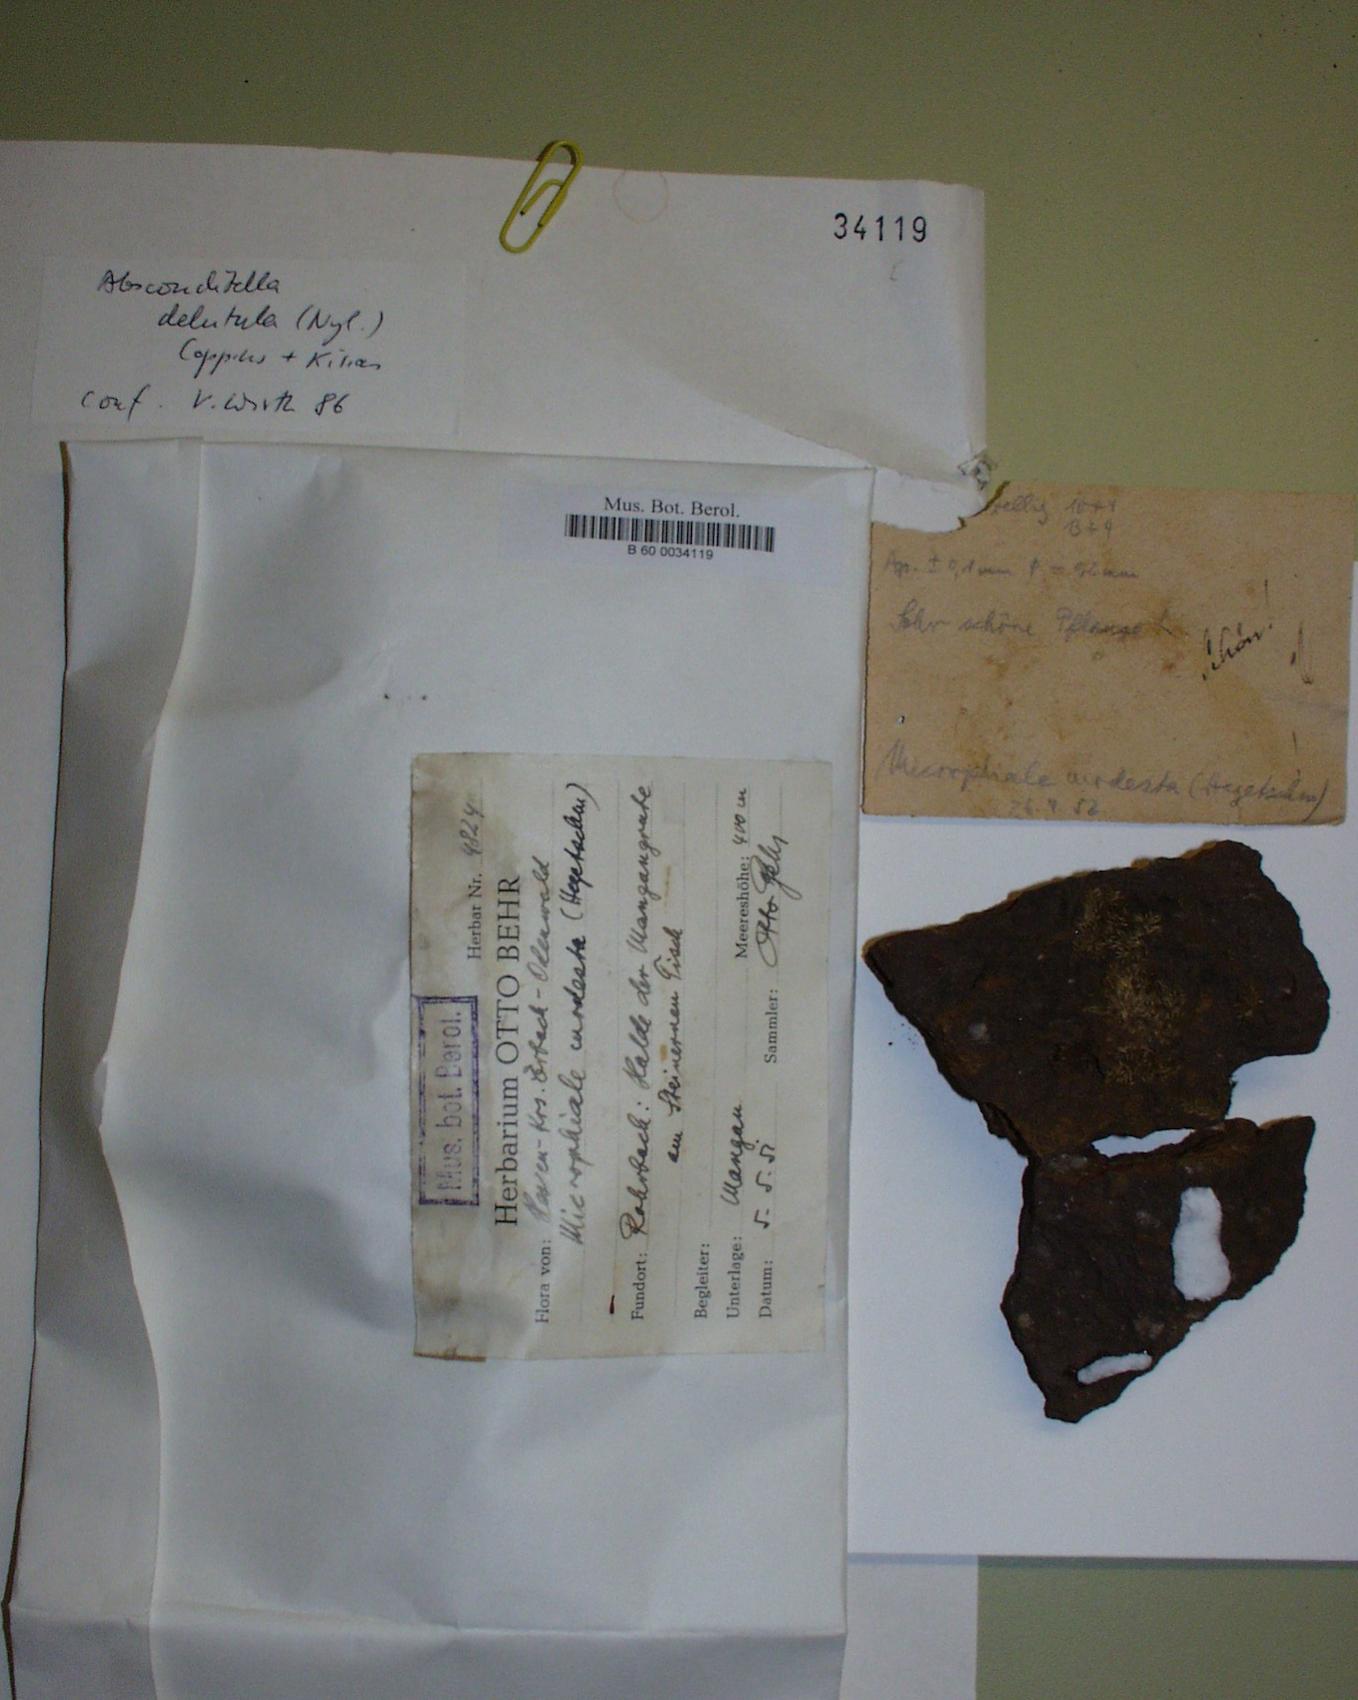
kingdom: Fungi
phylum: Ascomycota
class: Lecanoromycetes
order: Ostropales
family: Stictidaceae
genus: Absconditella
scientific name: Absconditella delutula
